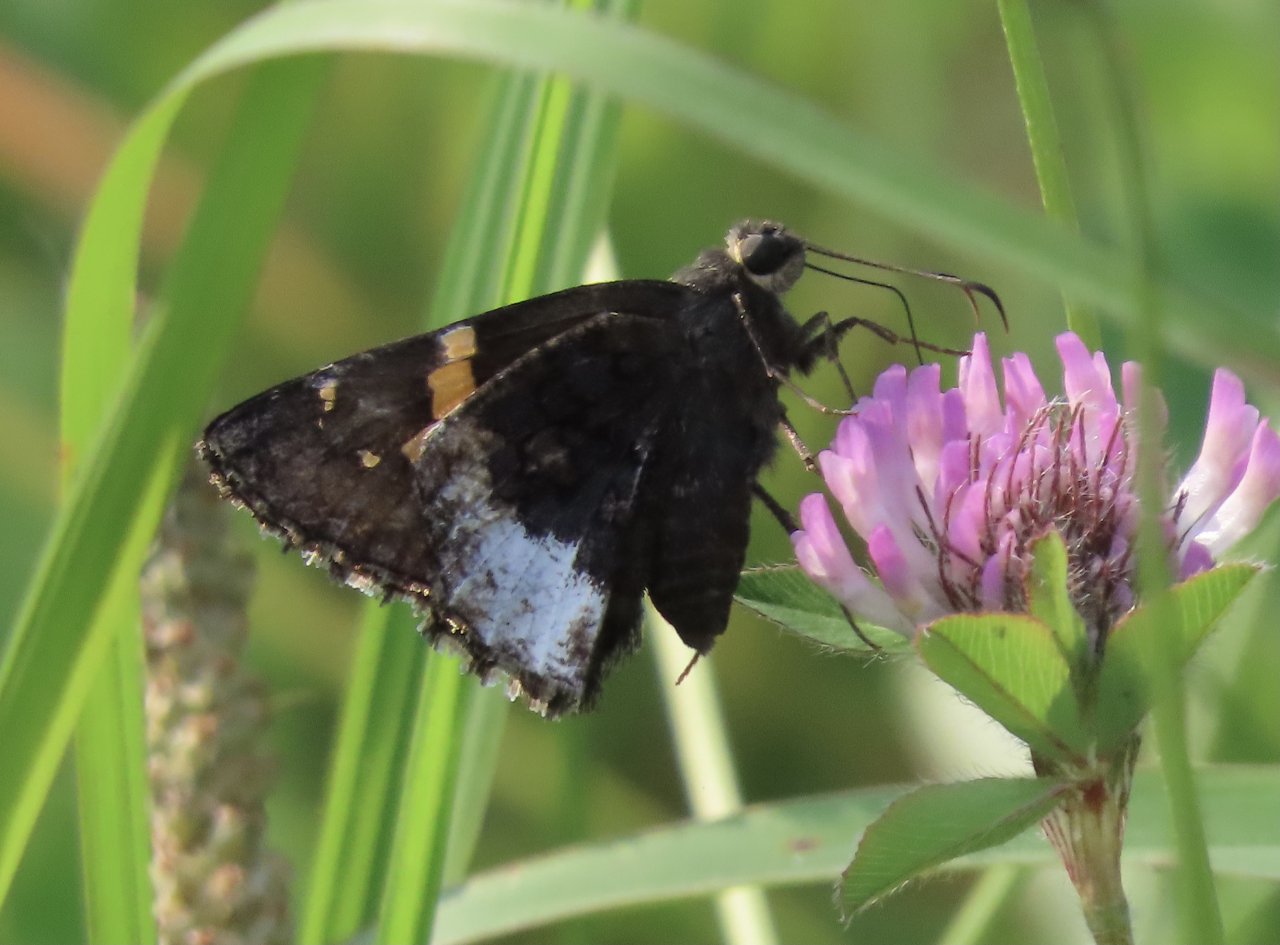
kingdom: Animalia
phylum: Arthropoda
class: Insecta
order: Lepidoptera
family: Hesperiidae
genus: Achalarus
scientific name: Achalarus lyciades
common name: Hoary Edge
